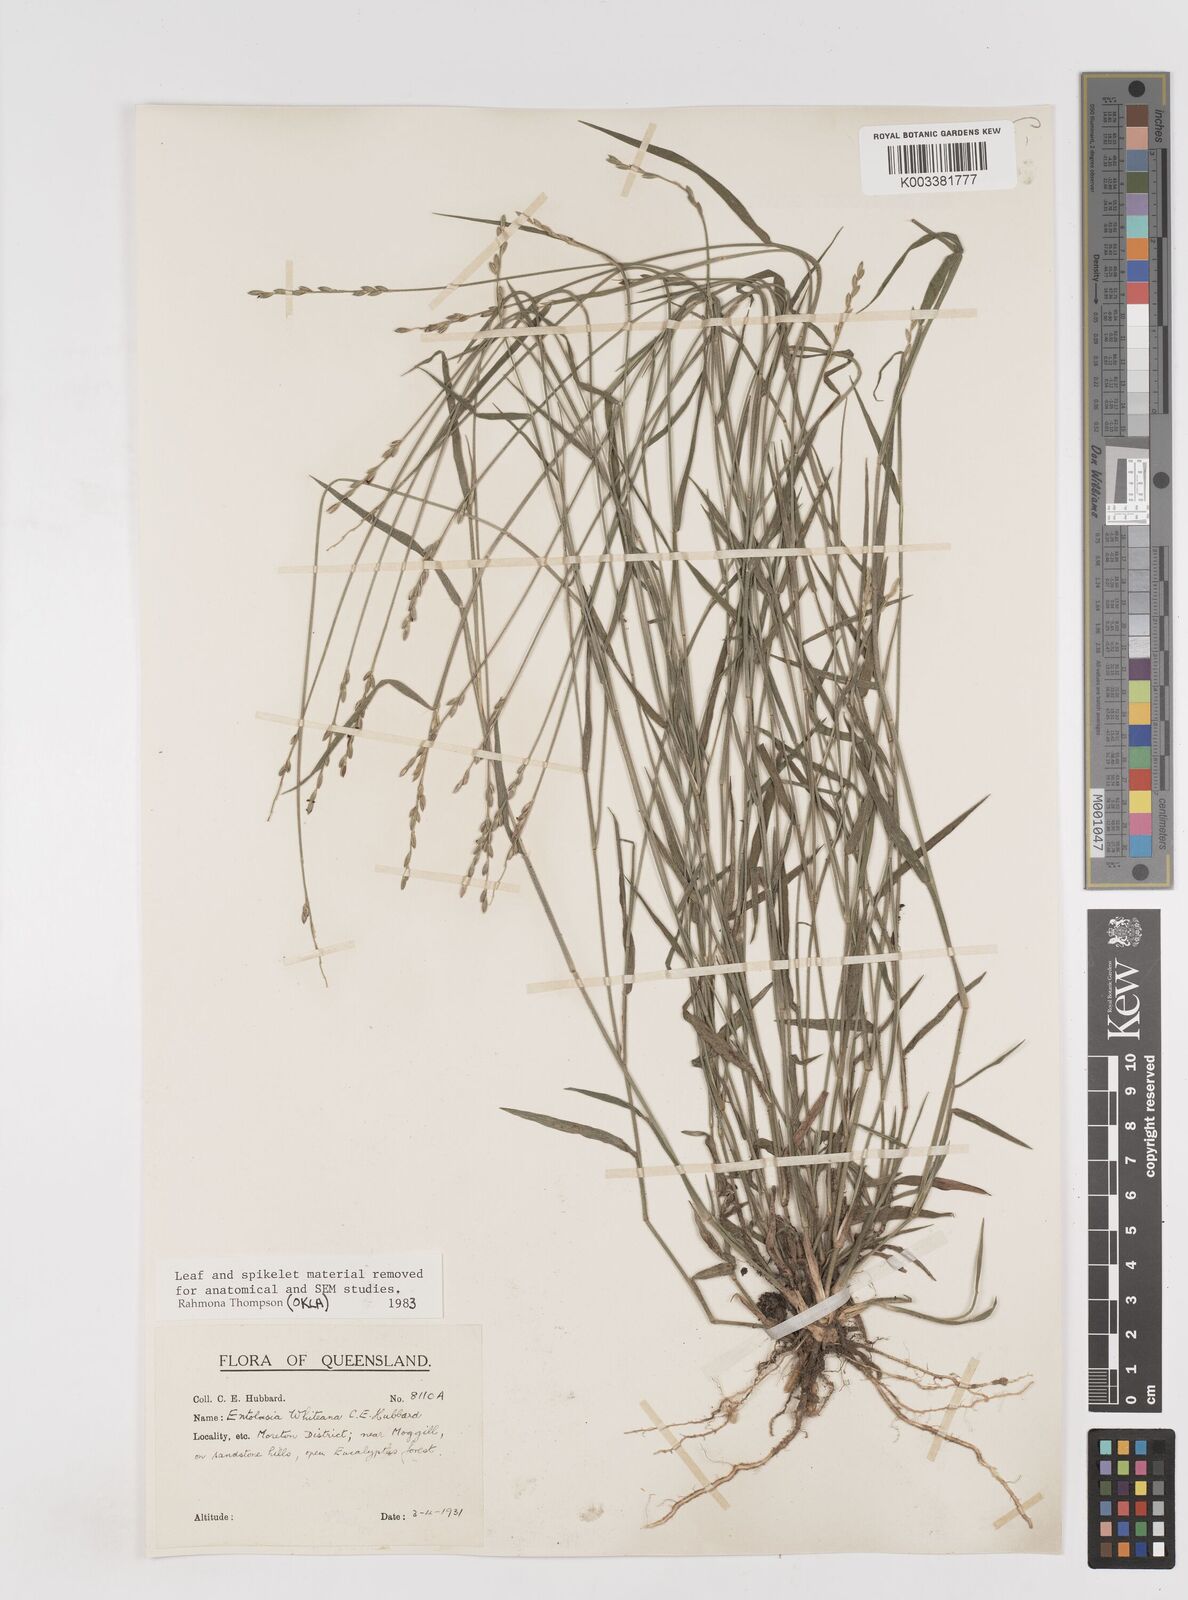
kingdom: Plantae
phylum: Tracheophyta
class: Liliopsida
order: Poales
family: Poaceae
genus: Entolasia
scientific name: Entolasia whiteana
